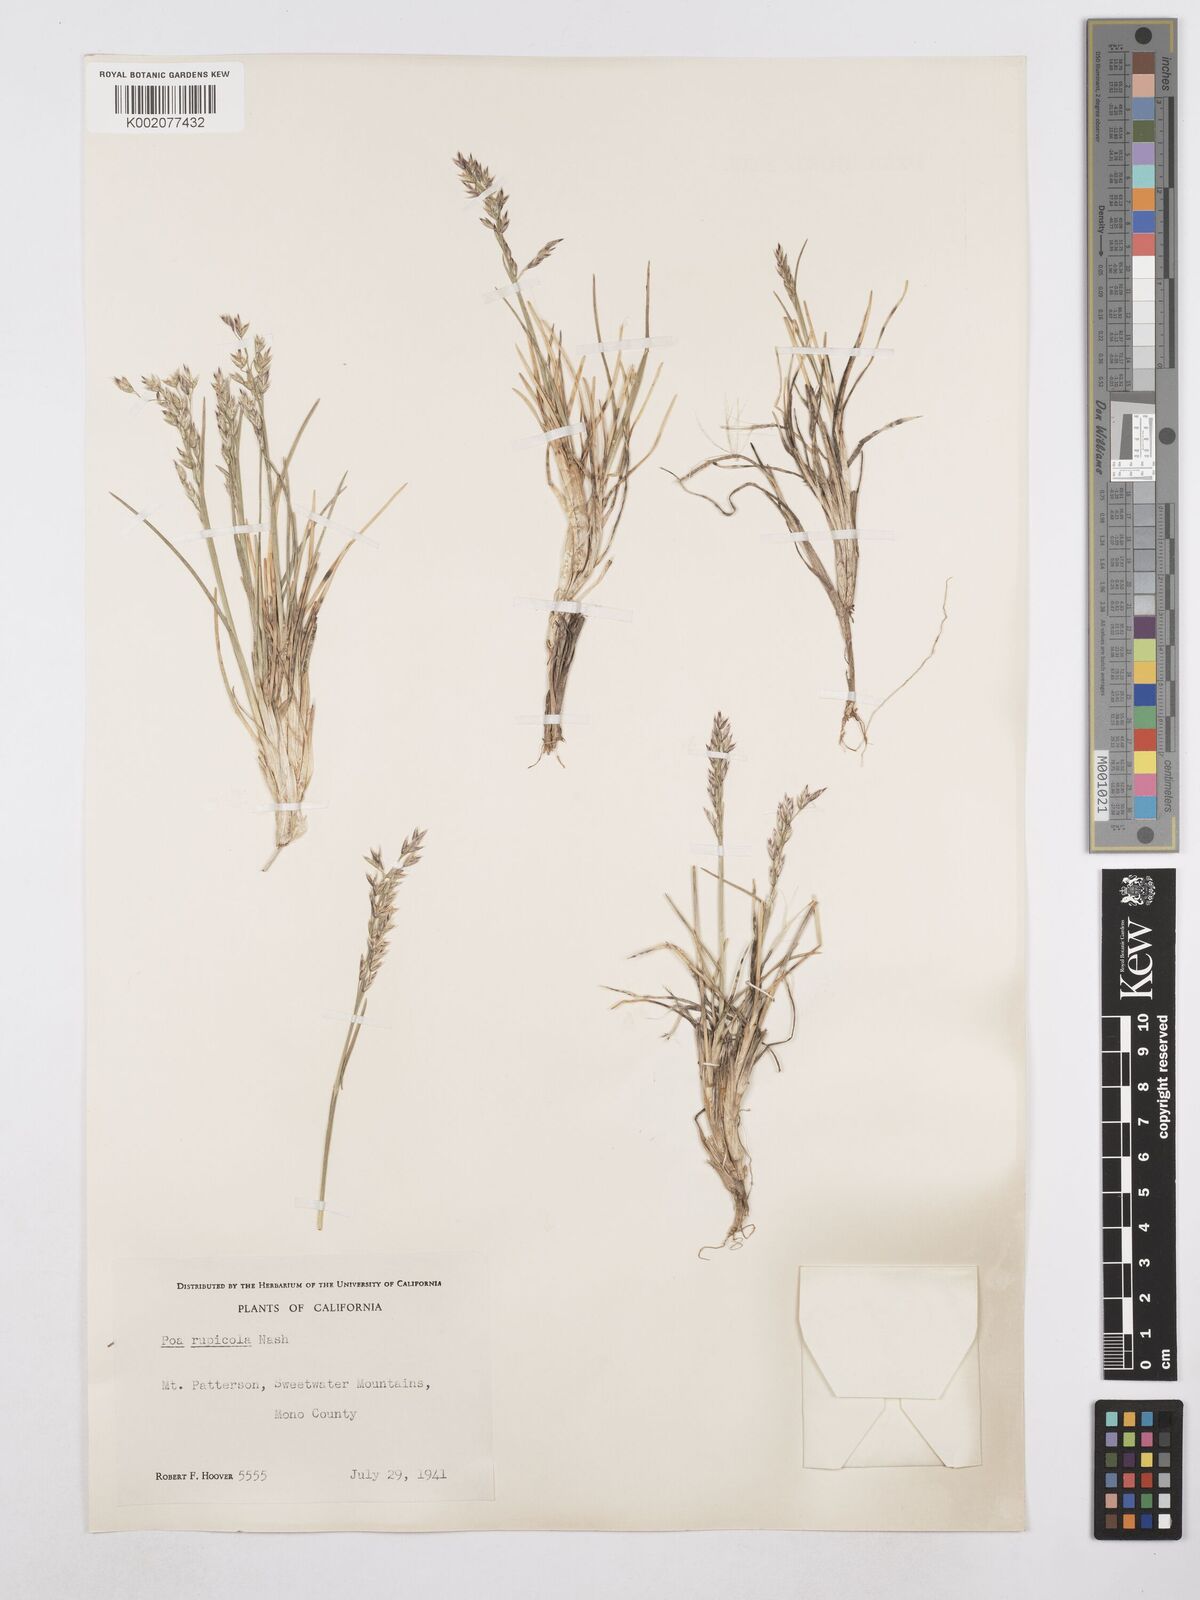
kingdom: Plantae
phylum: Tracheophyta
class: Liliopsida
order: Poales
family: Poaceae
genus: Poa
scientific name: Poa glauca
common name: Glaucous bluegrass
